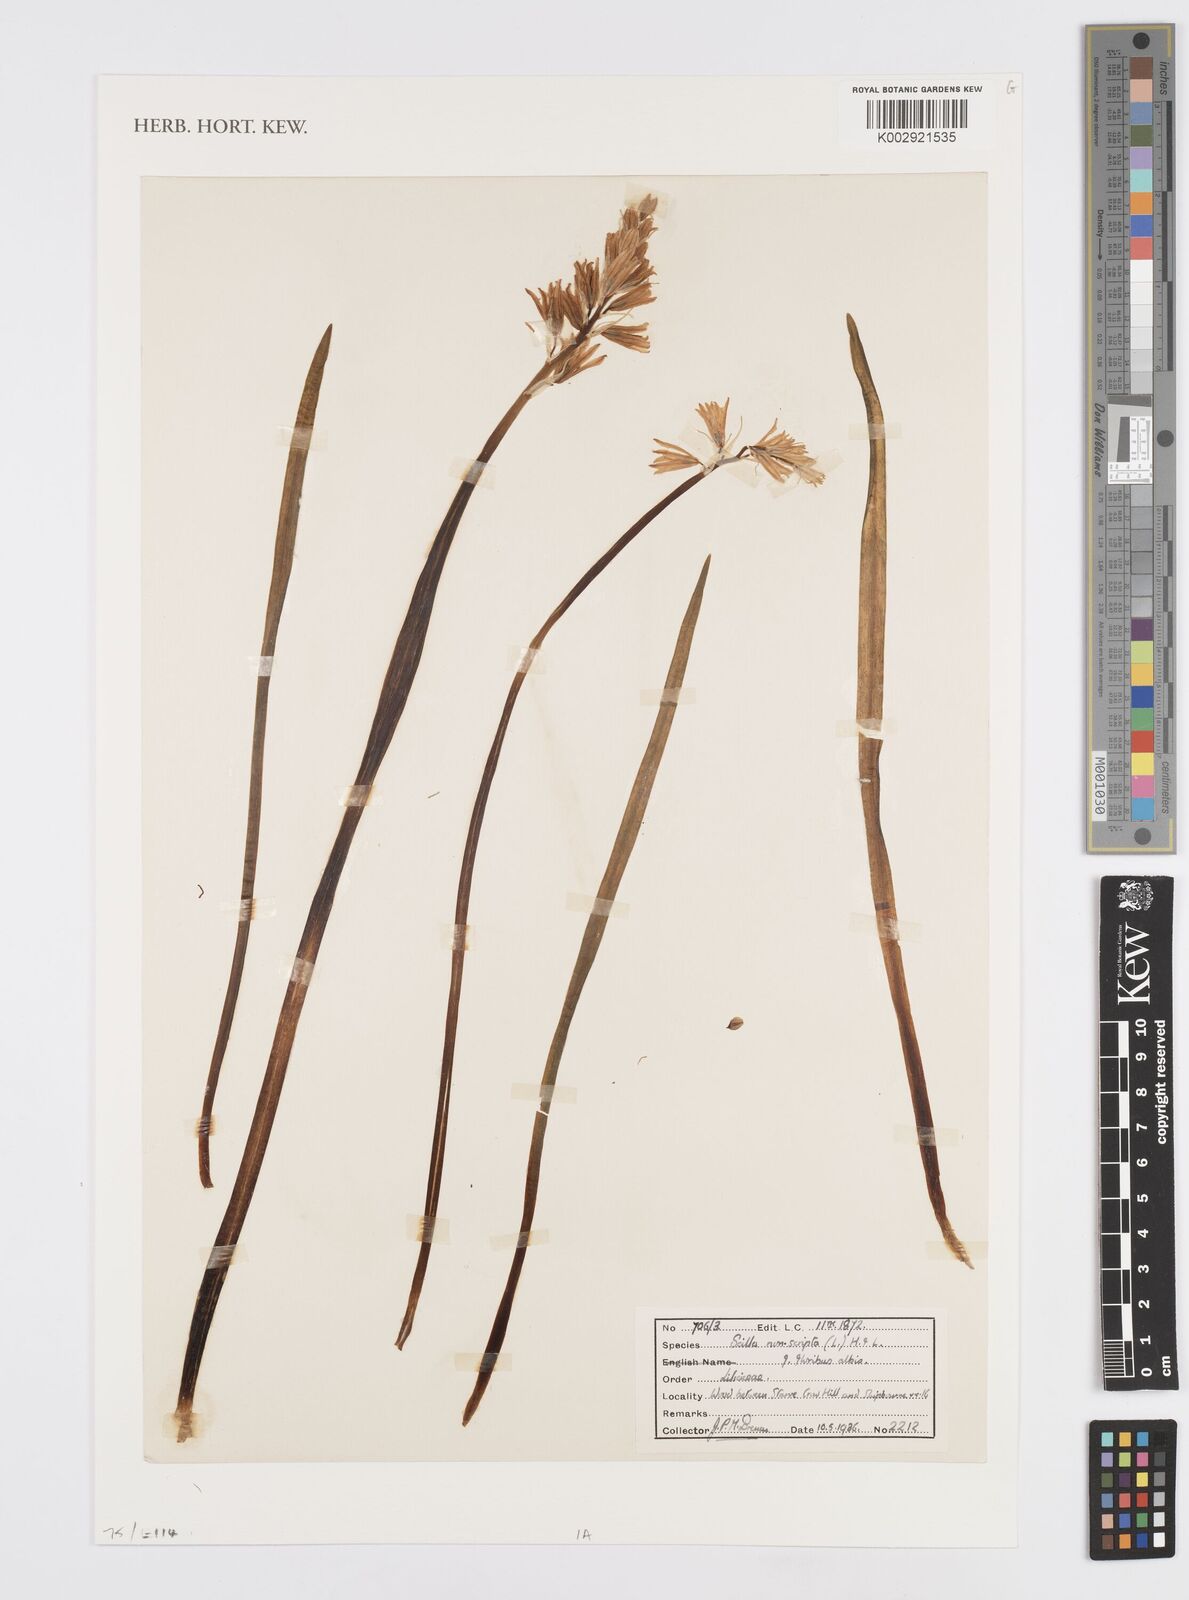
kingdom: Plantae
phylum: Tracheophyta
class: Liliopsida
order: Asparagales
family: Asparagaceae
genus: Hyacinthoides
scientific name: Hyacinthoides non-scripta
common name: Bluebell
